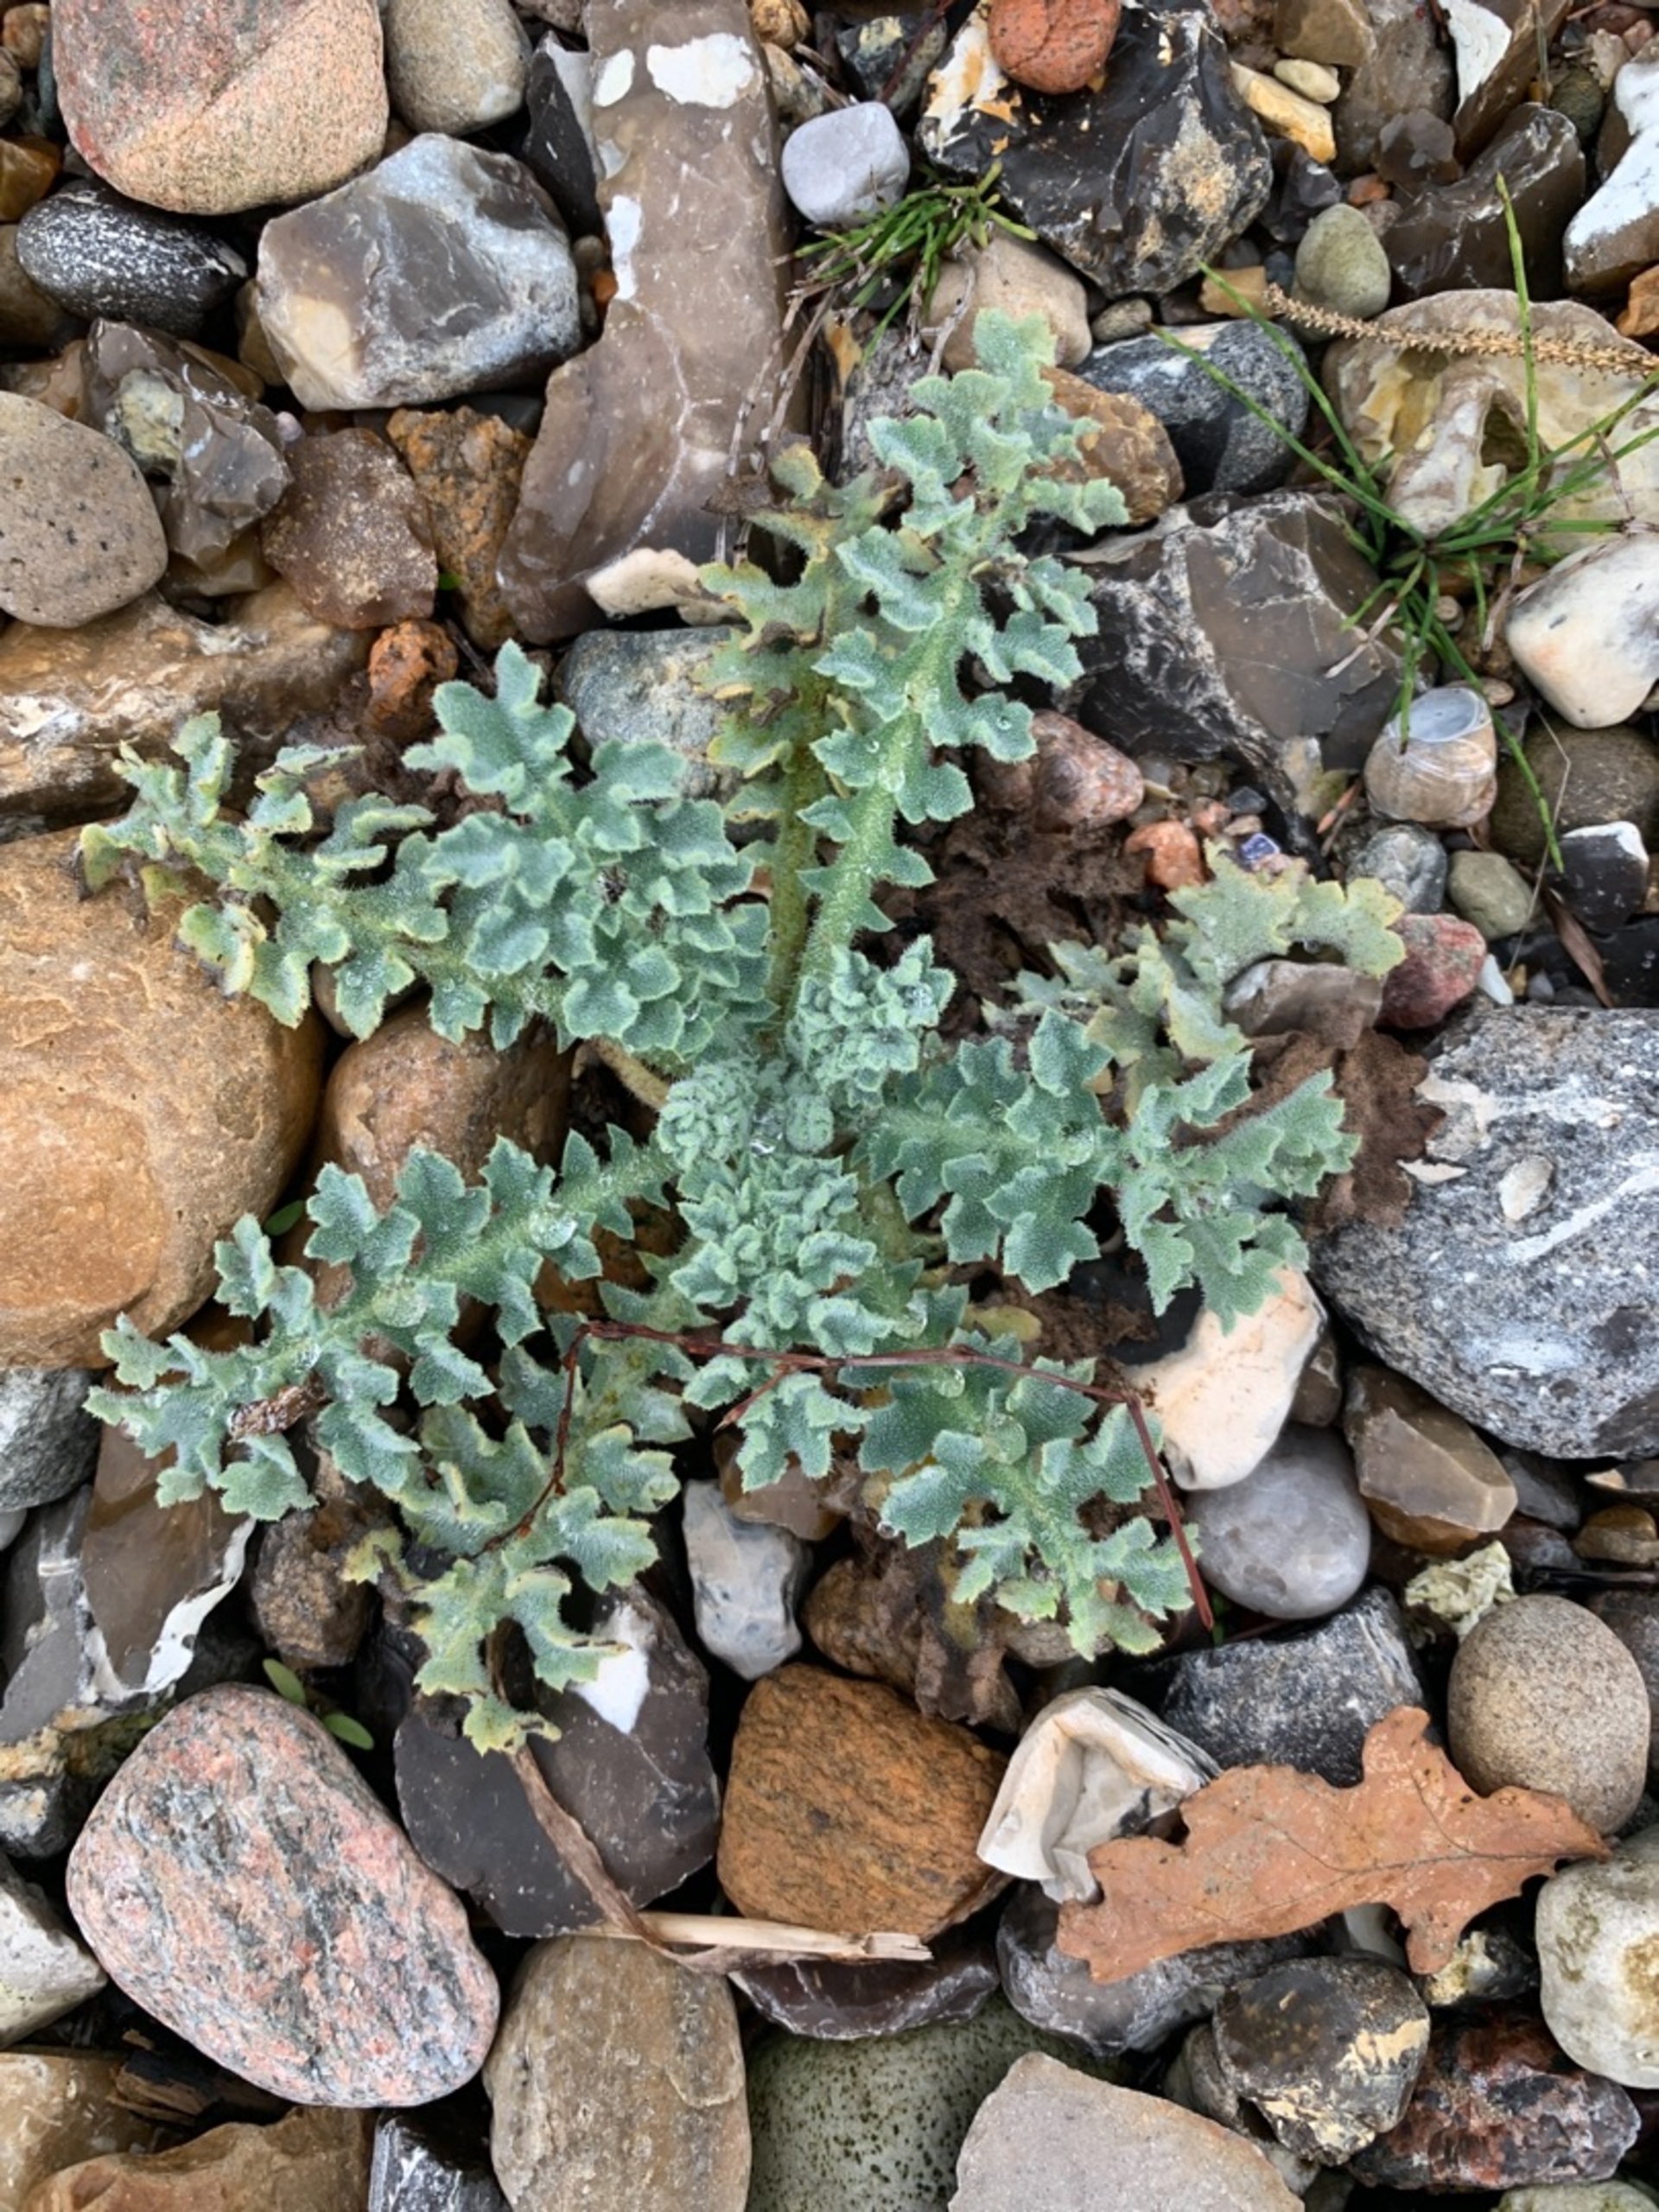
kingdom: Plantae
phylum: Tracheophyta
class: Magnoliopsida
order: Ranunculales
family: Papaveraceae
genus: Glaucium
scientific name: Glaucium flavum
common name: Hornskulpe
